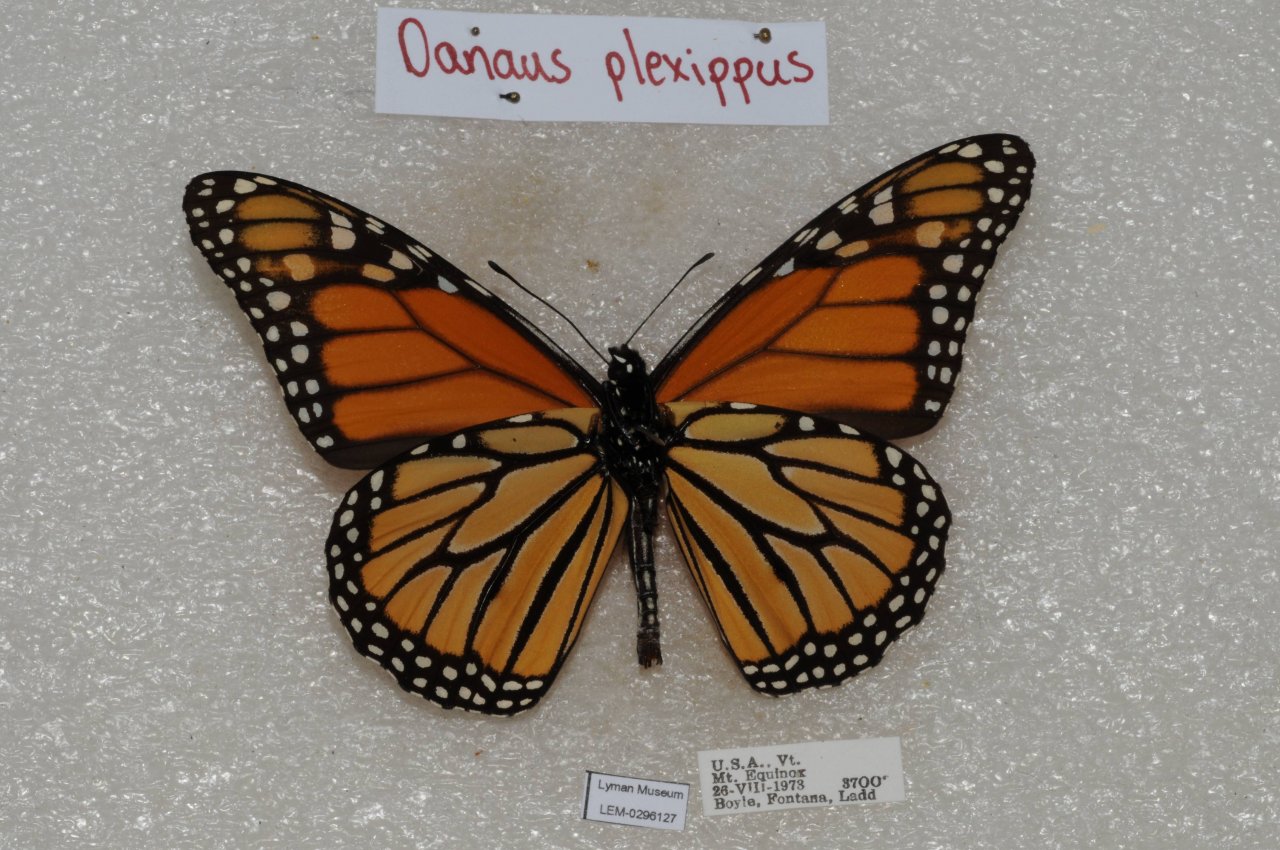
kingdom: Animalia
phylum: Arthropoda
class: Insecta
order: Lepidoptera
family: Nymphalidae
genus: Danaus
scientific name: Danaus plexippus
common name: Monarch
